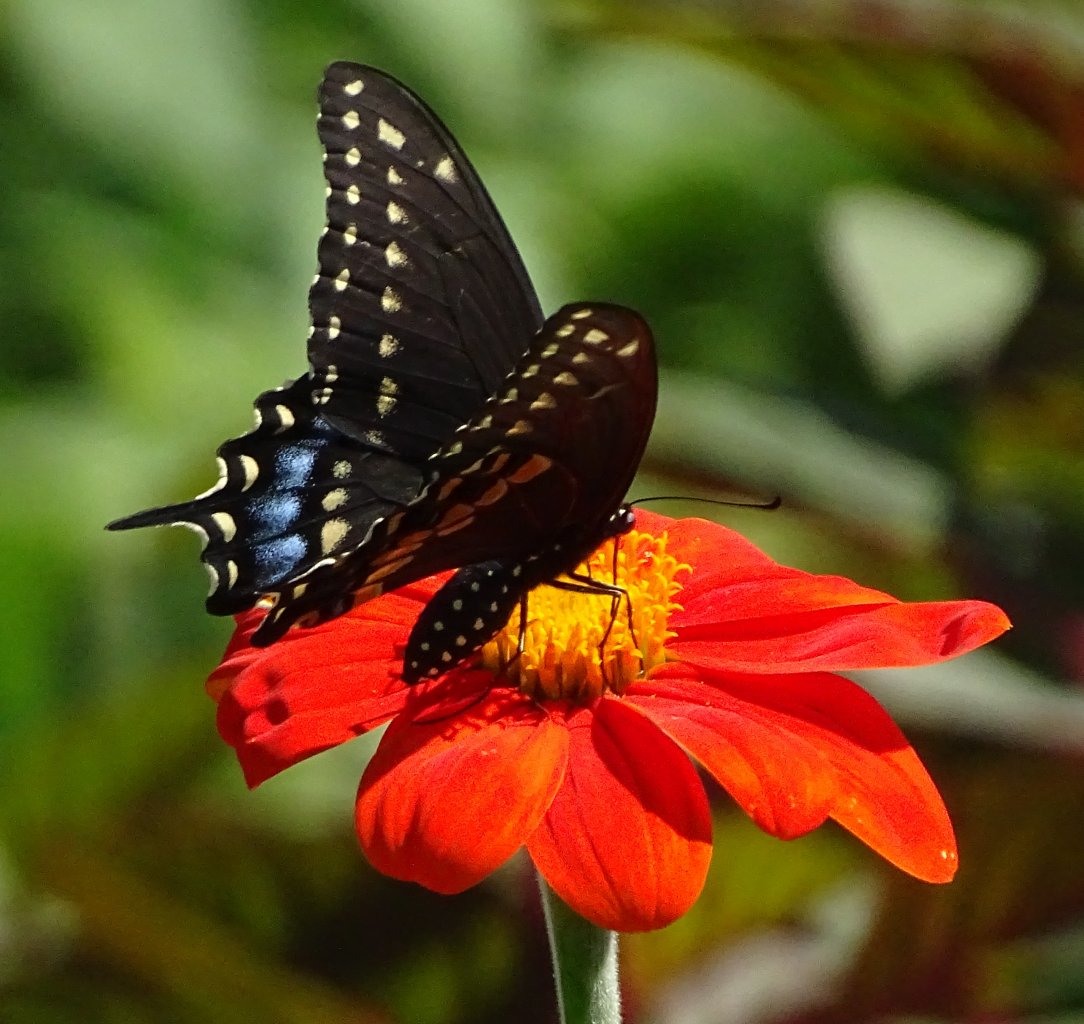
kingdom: Animalia
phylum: Arthropoda
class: Insecta
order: Lepidoptera
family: Papilionidae
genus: Papilio
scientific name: Papilio polyxenes
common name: Black Swallowtail
